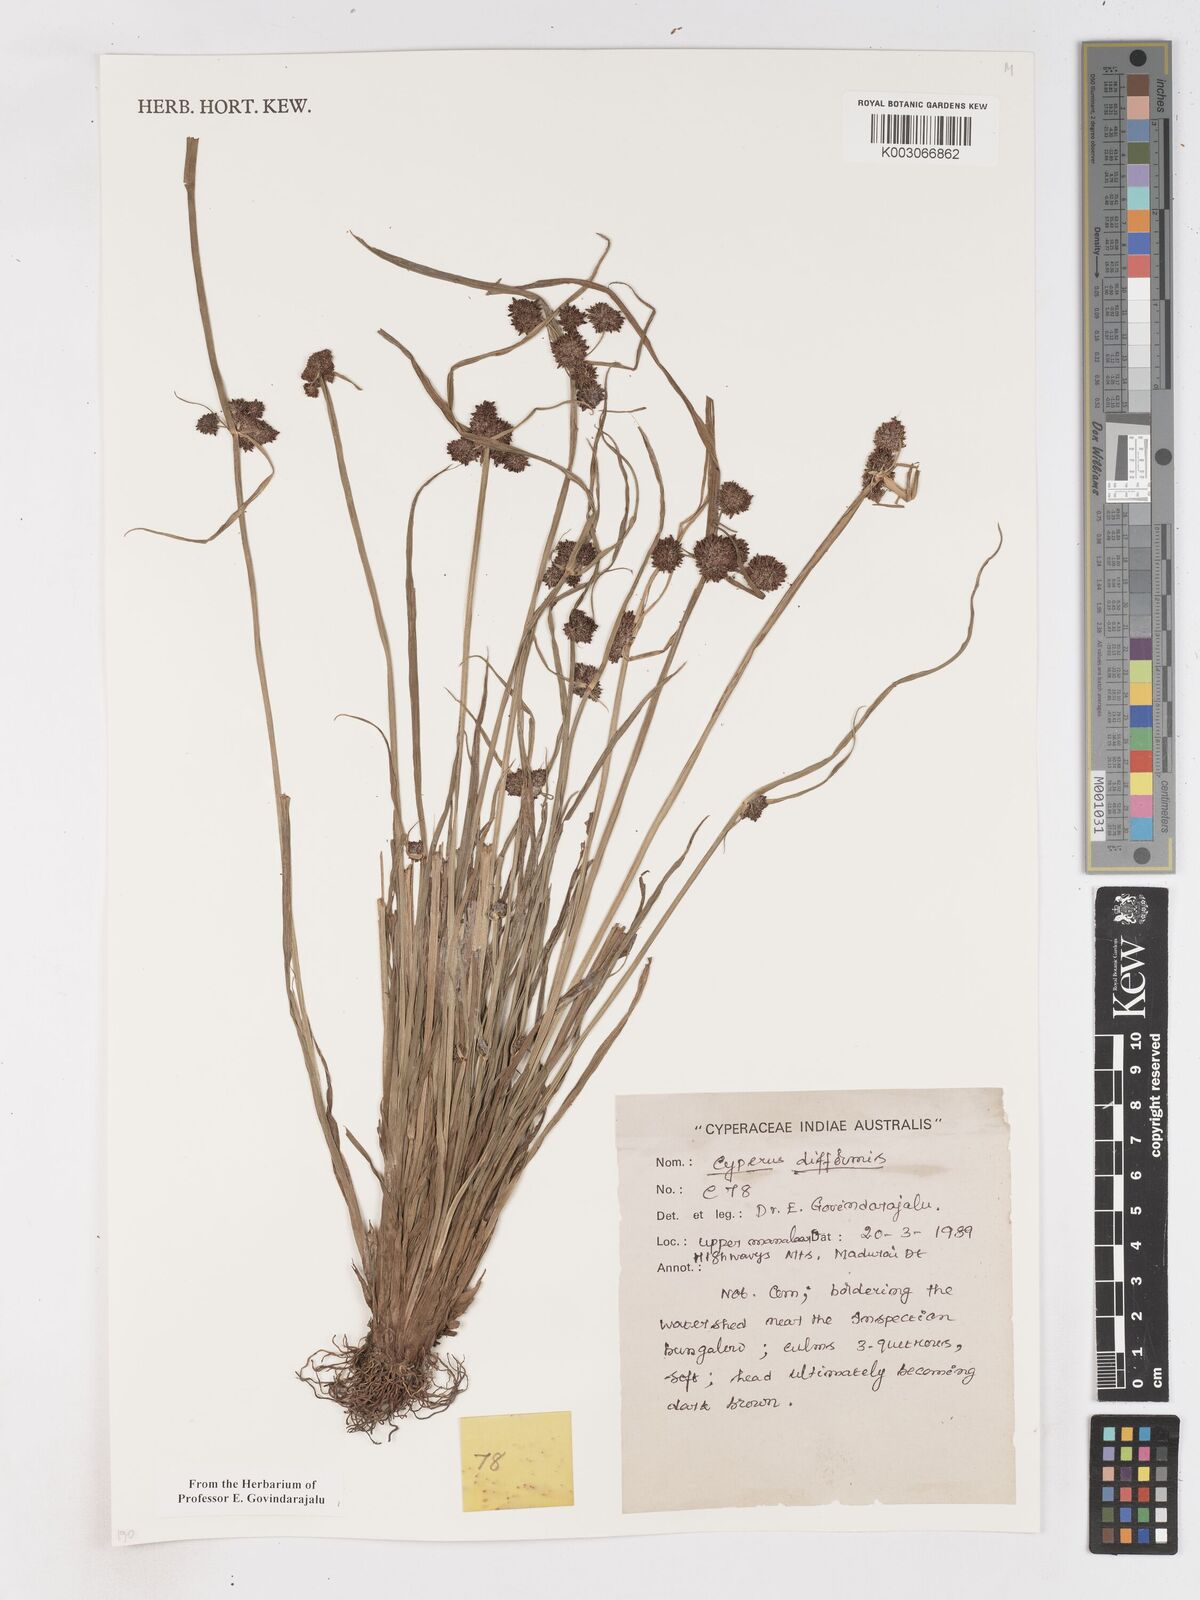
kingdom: Plantae
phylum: Tracheophyta
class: Liliopsida
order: Poales
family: Cyperaceae
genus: Cyperus
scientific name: Cyperus difformis
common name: Variable flatsedge
